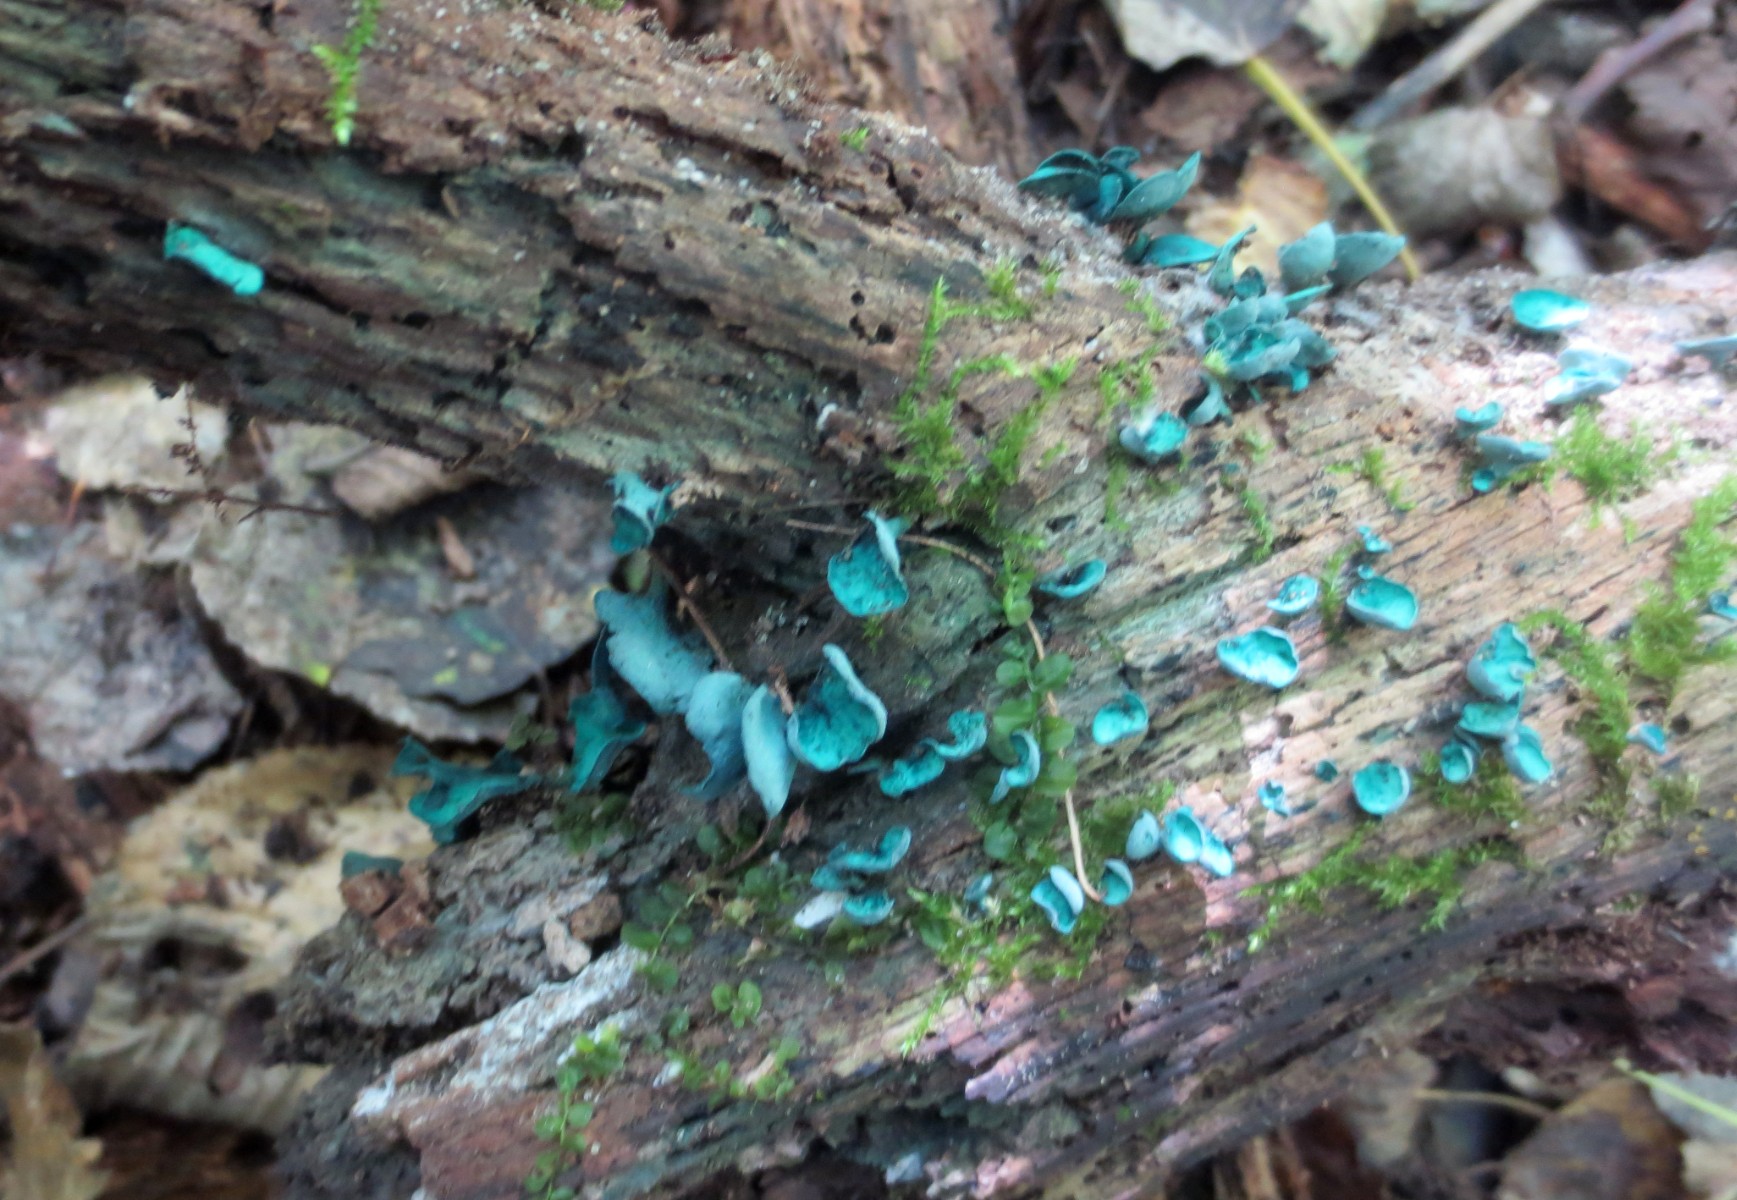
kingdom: Fungi
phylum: Ascomycota
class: Leotiomycetes
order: Helotiales
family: Chlorociboriaceae
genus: Chlorociboria
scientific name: Chlorociboria aeruginascens
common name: almindelig grønskive
